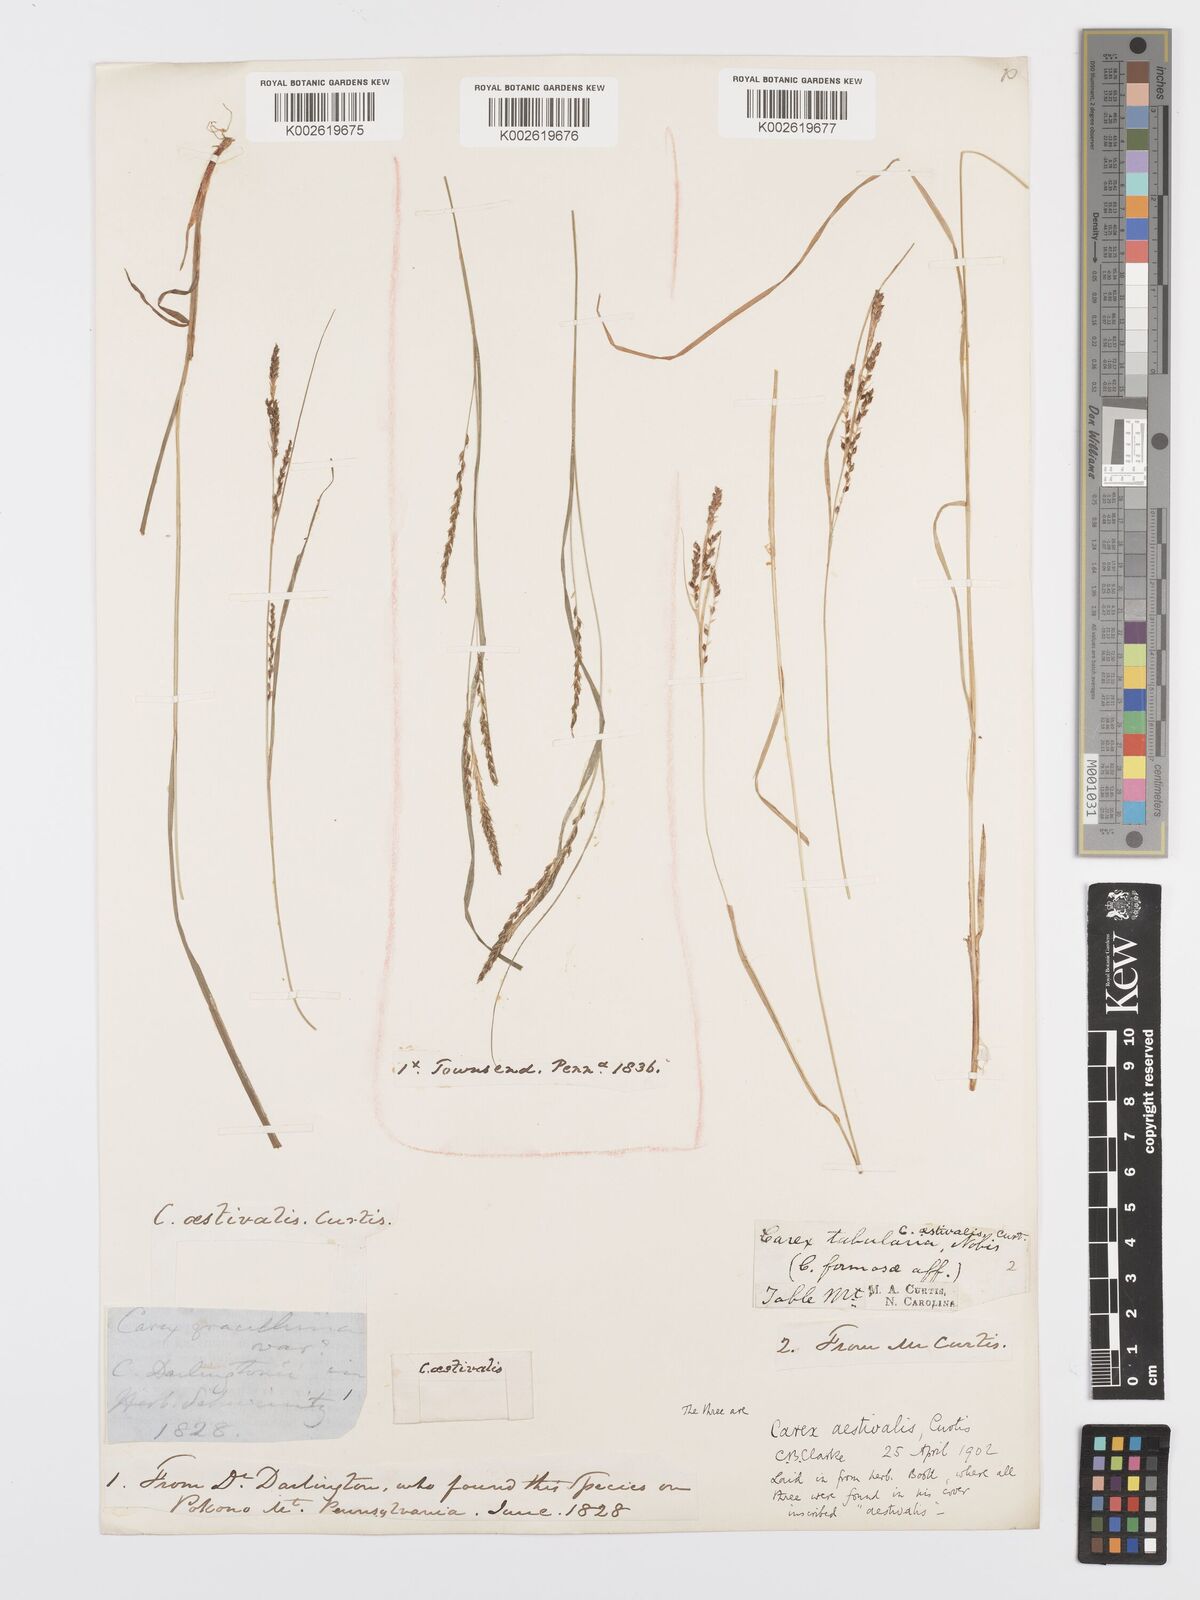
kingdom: Plantae
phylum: Tracheophyta
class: Liliopsida
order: Poales
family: Cyperaceae
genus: Carex
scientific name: Carex aestivalis
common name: Summer sedge
